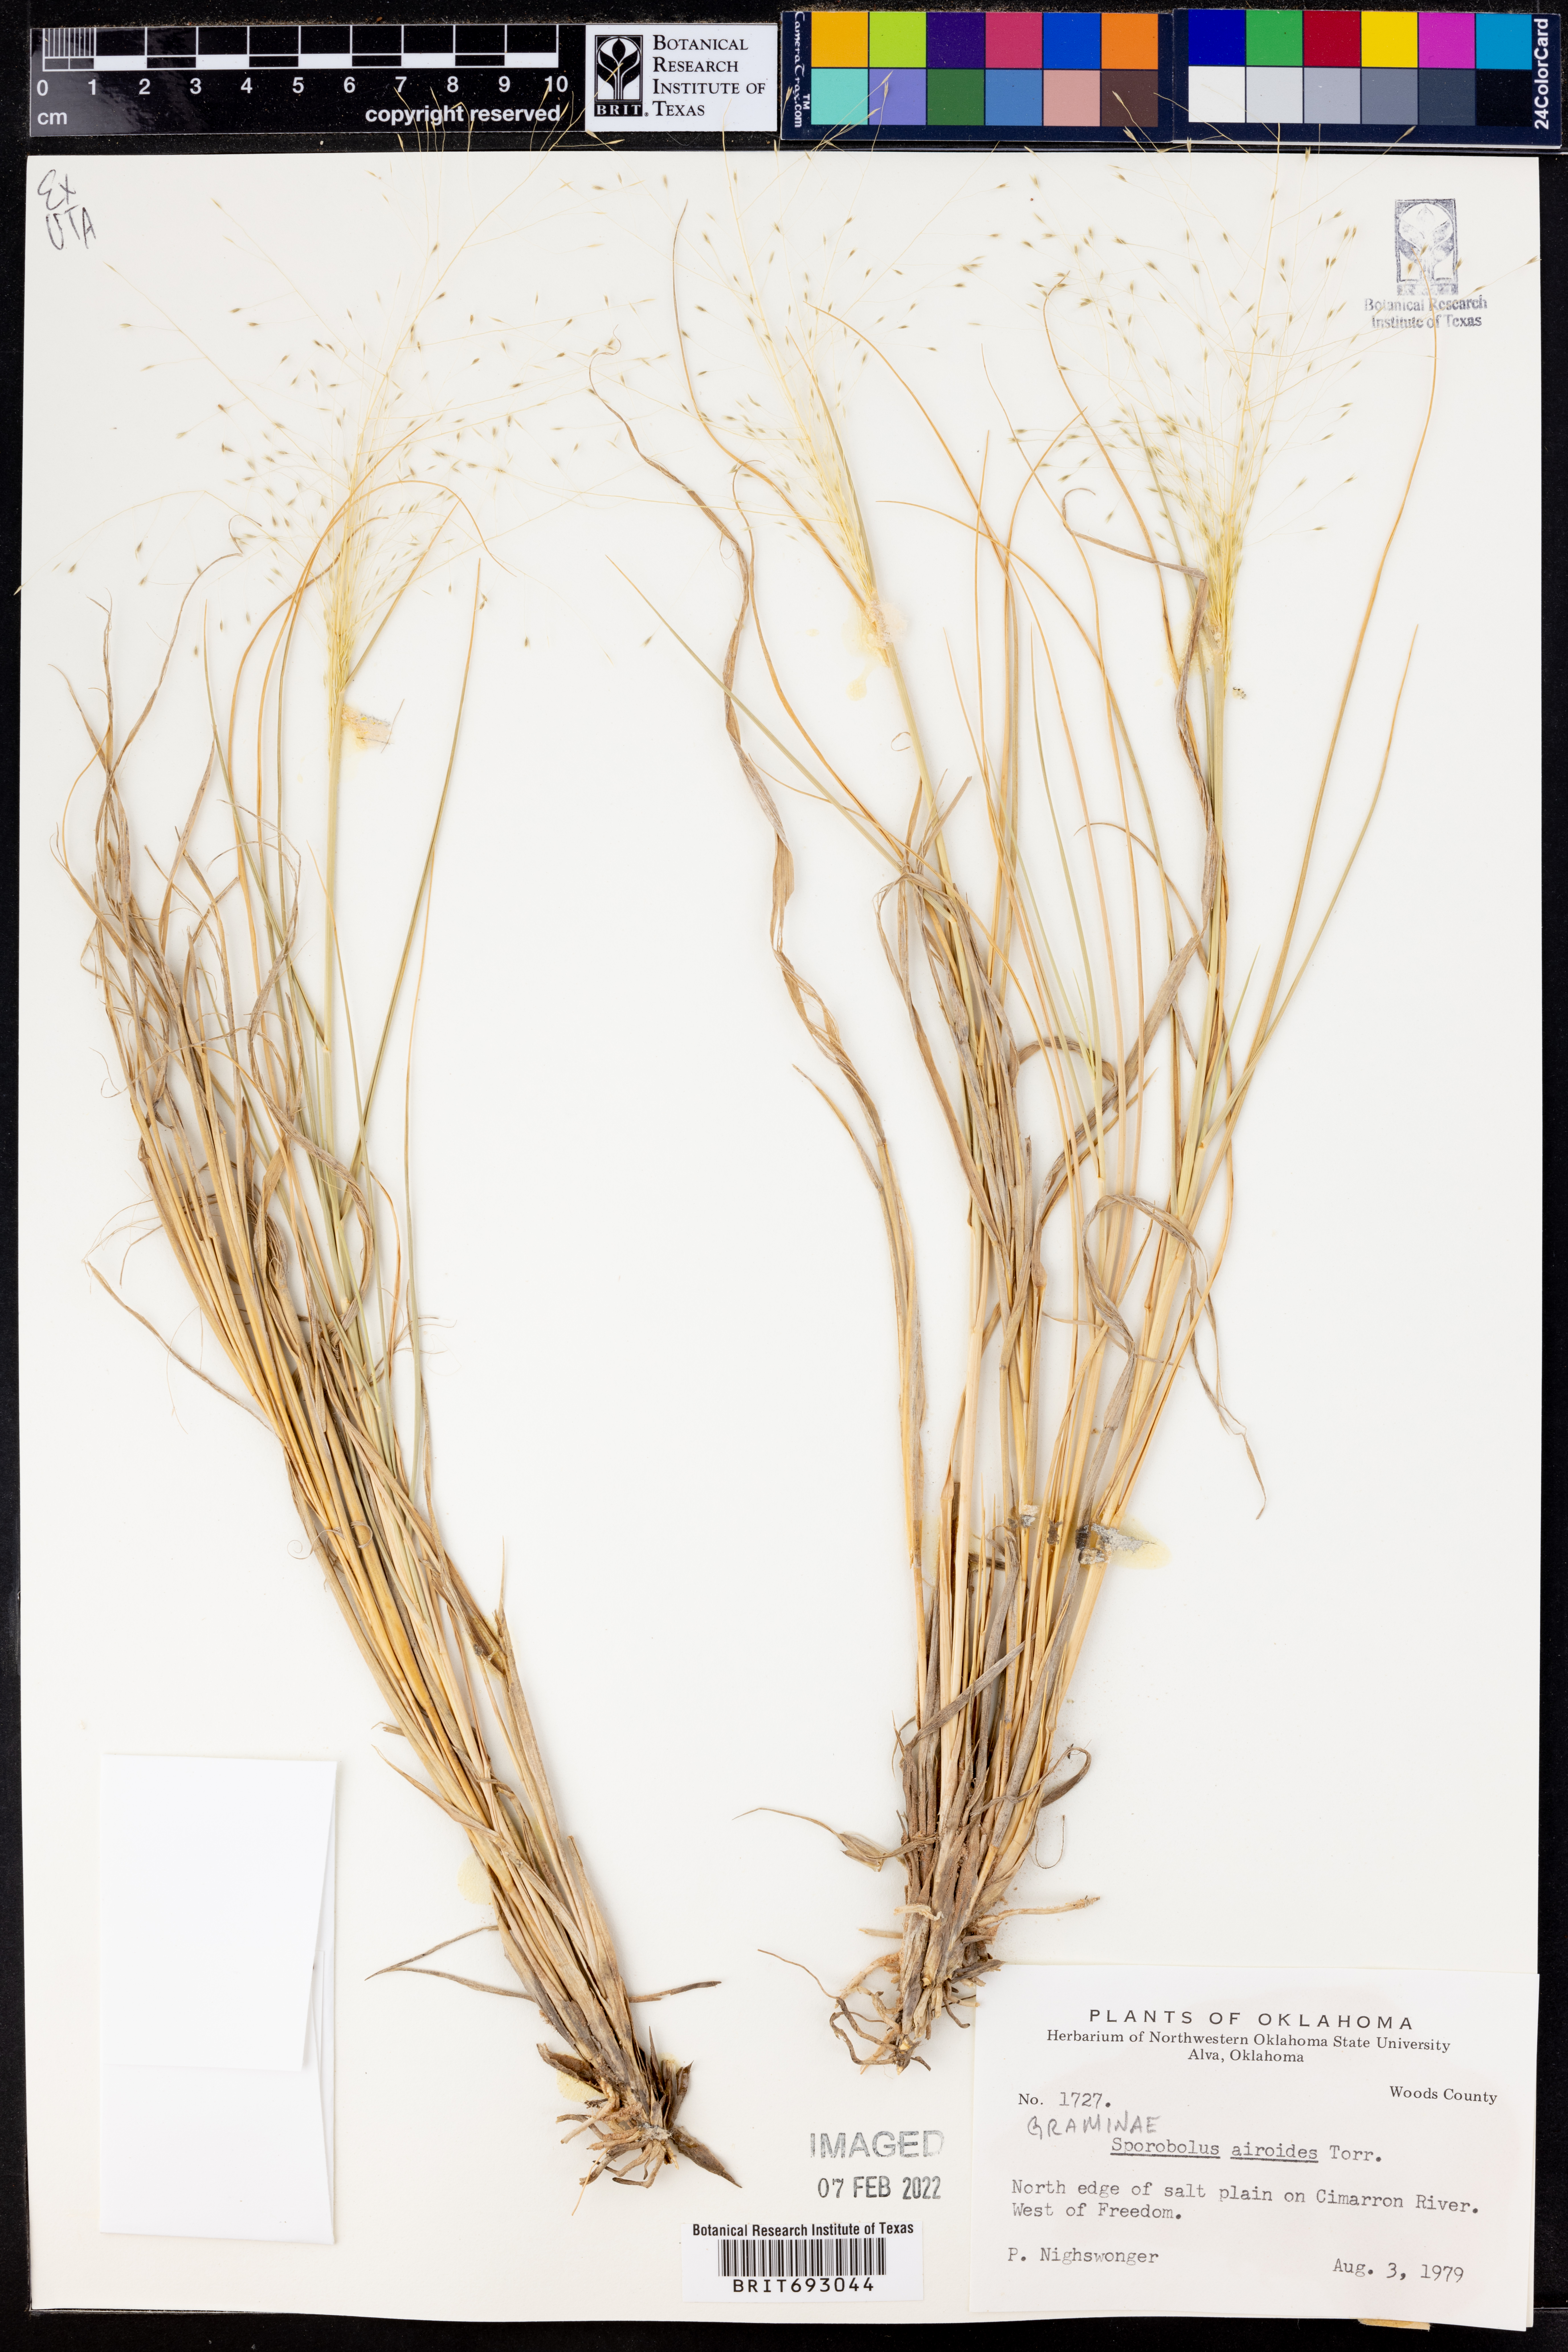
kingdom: Plantae
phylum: Tracheophyta
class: Liliopsida
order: Poales
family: Poaceae
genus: Sporobolus
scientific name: Sporobolus airoides
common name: Alkali sacaton
